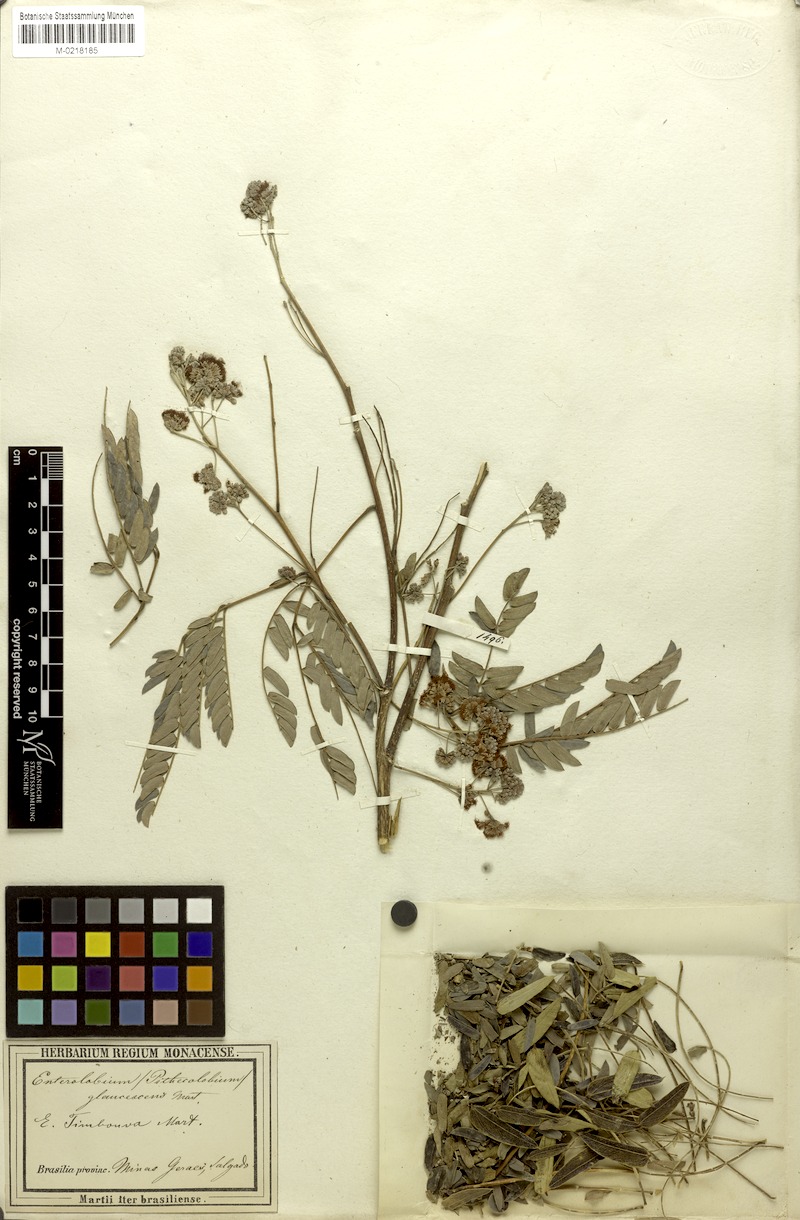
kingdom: Plantae
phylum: Tracheophyta
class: Magnoliopsida
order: Fabales
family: Fabaceae
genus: Enterolobium
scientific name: Enterolobium contortisiliquum
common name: Pacara earpod tree
